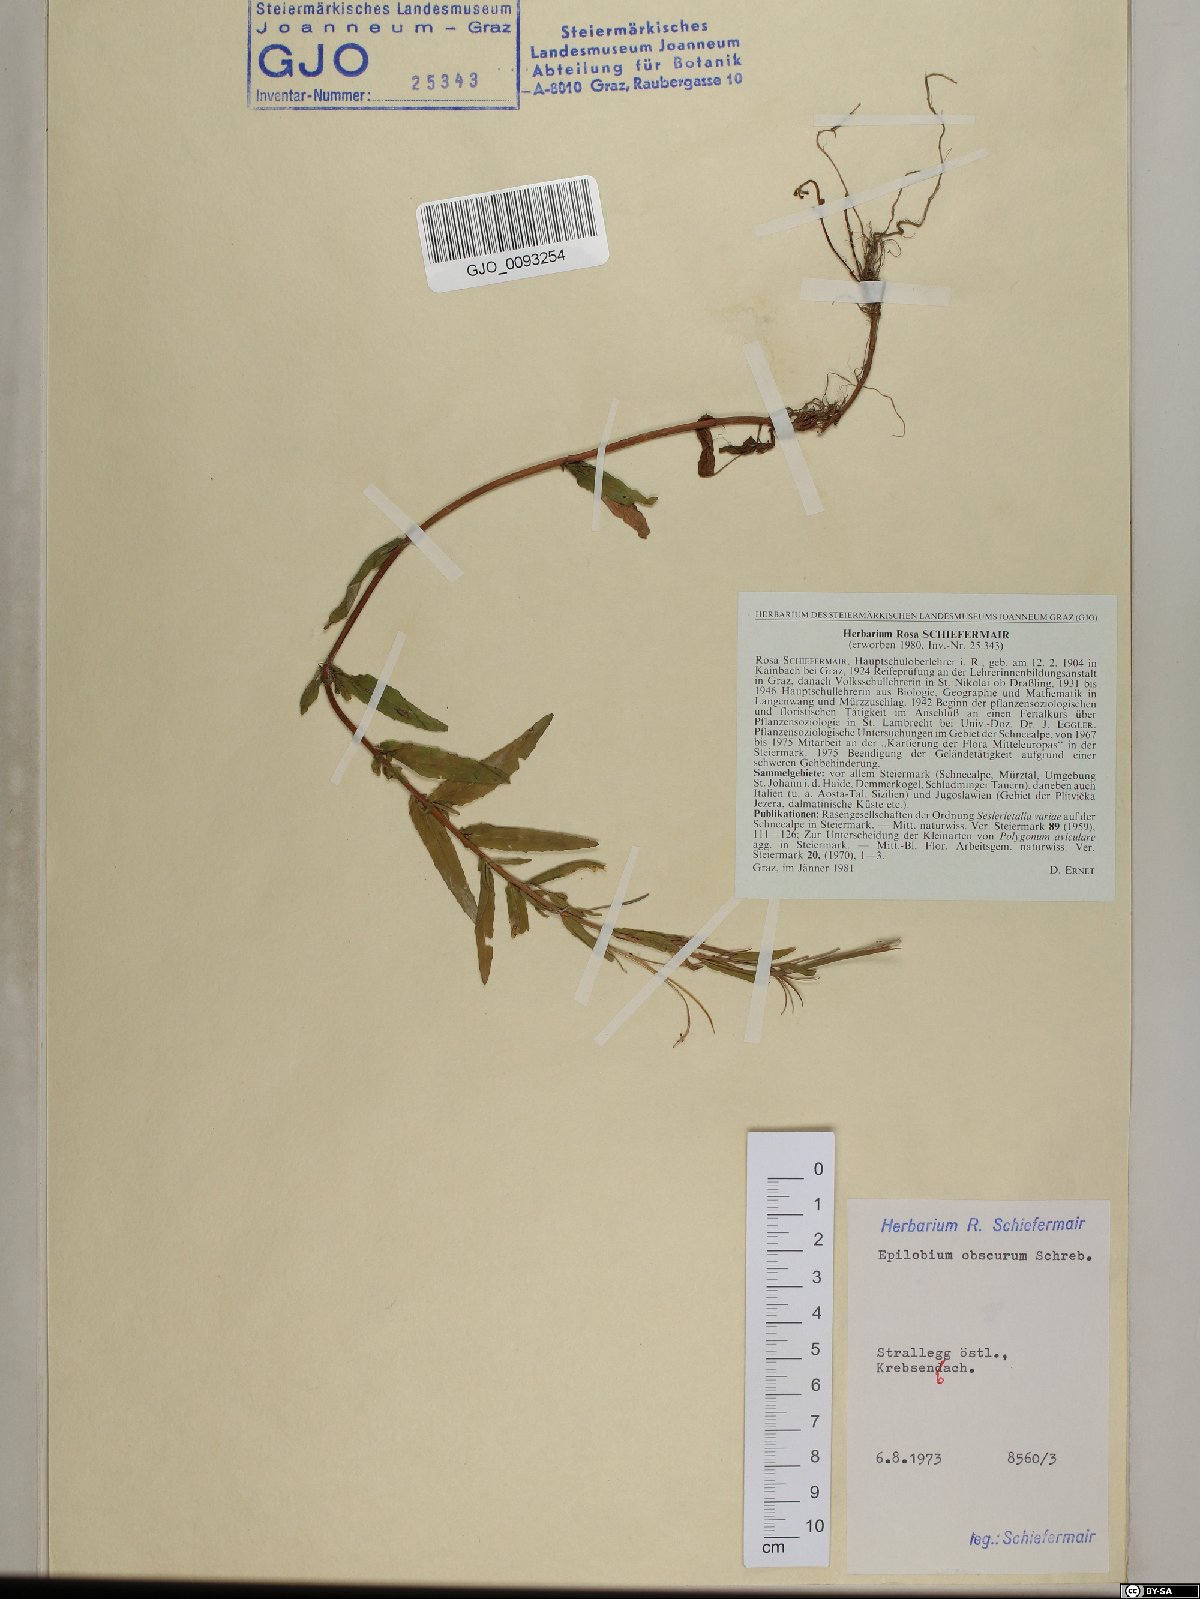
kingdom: Plantae
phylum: Tracheophyta
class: Magnoliopsida
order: Myrtales
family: Onagraceae
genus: Epilobium
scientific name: Epilobium obscurum
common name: Short-fruited willowherb
